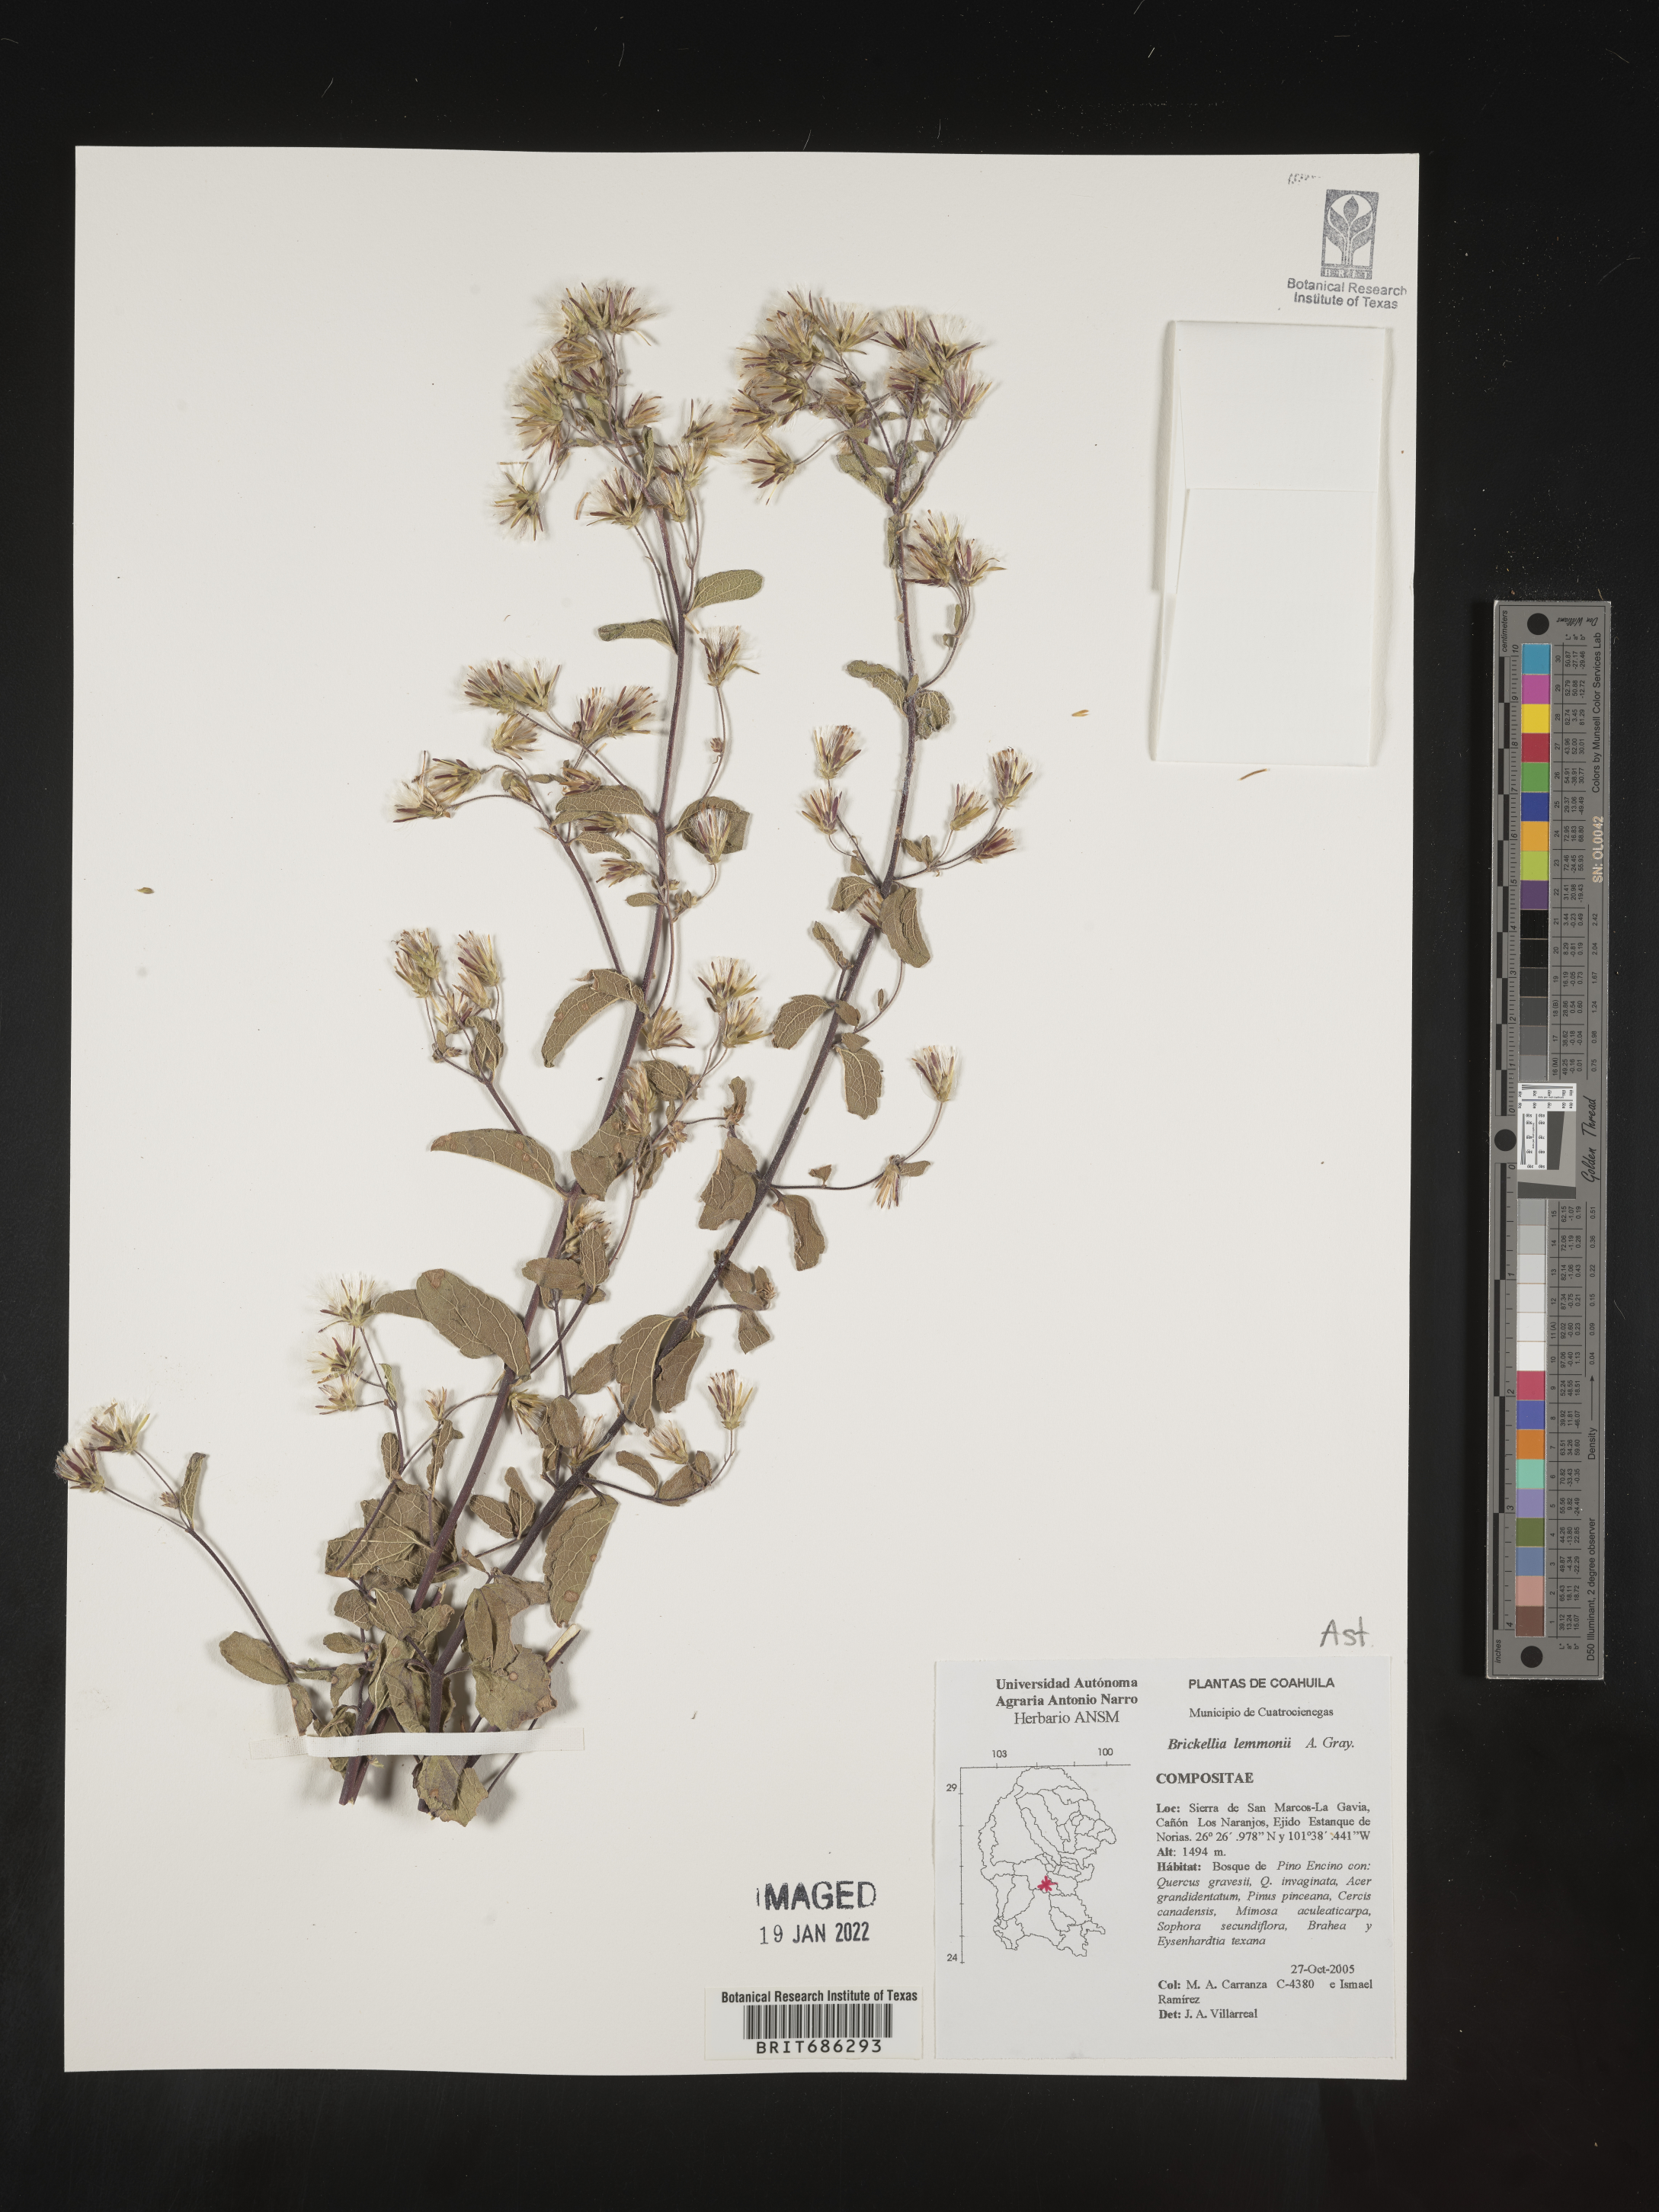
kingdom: Plantae
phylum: Tracheophyta
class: Magnoliopsida
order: Asterales
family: Asteraceae
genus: Brickellia
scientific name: Brickellia
